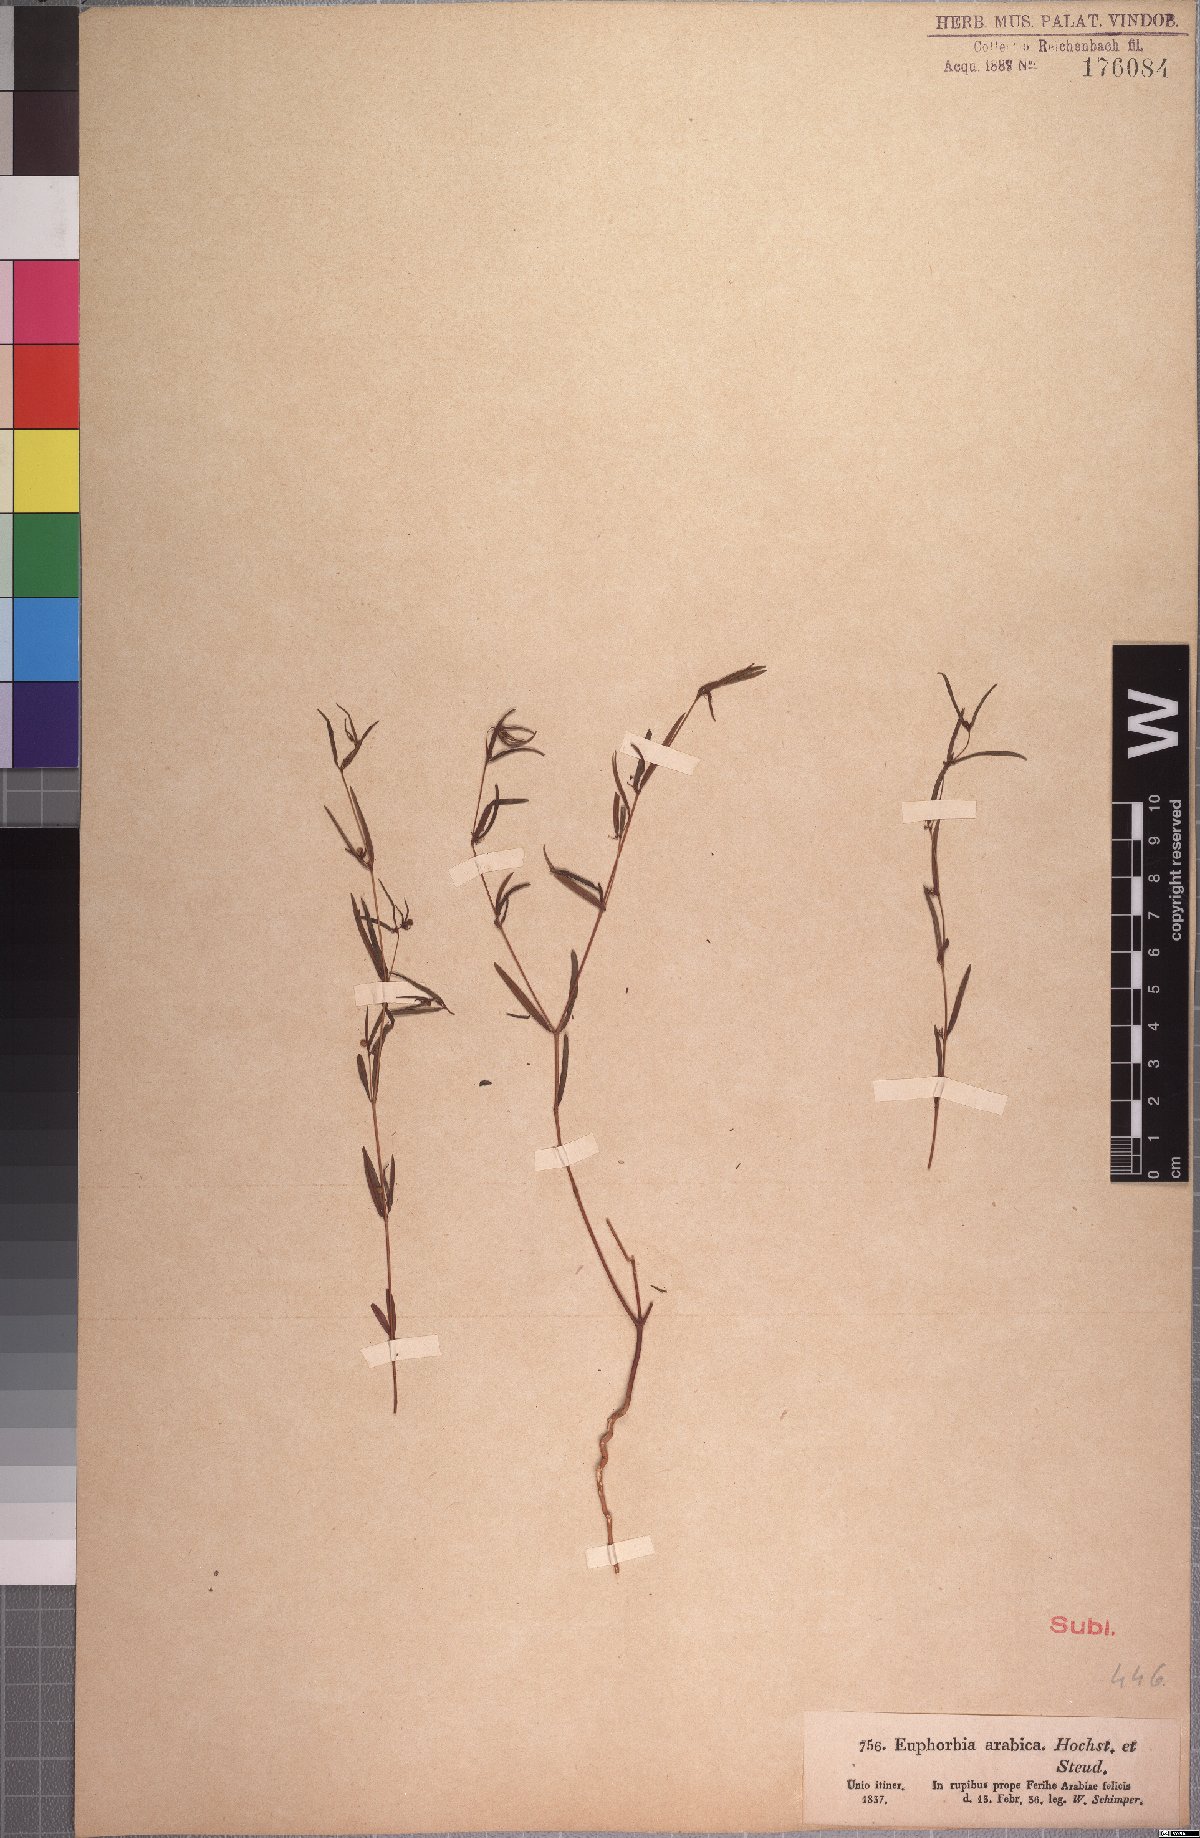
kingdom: Plantae
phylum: Tracheophyta
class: Magnoliopsida
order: Malpighiales
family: Euphorbiaceae
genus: Euphorbia
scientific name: Euphorbia arabica
